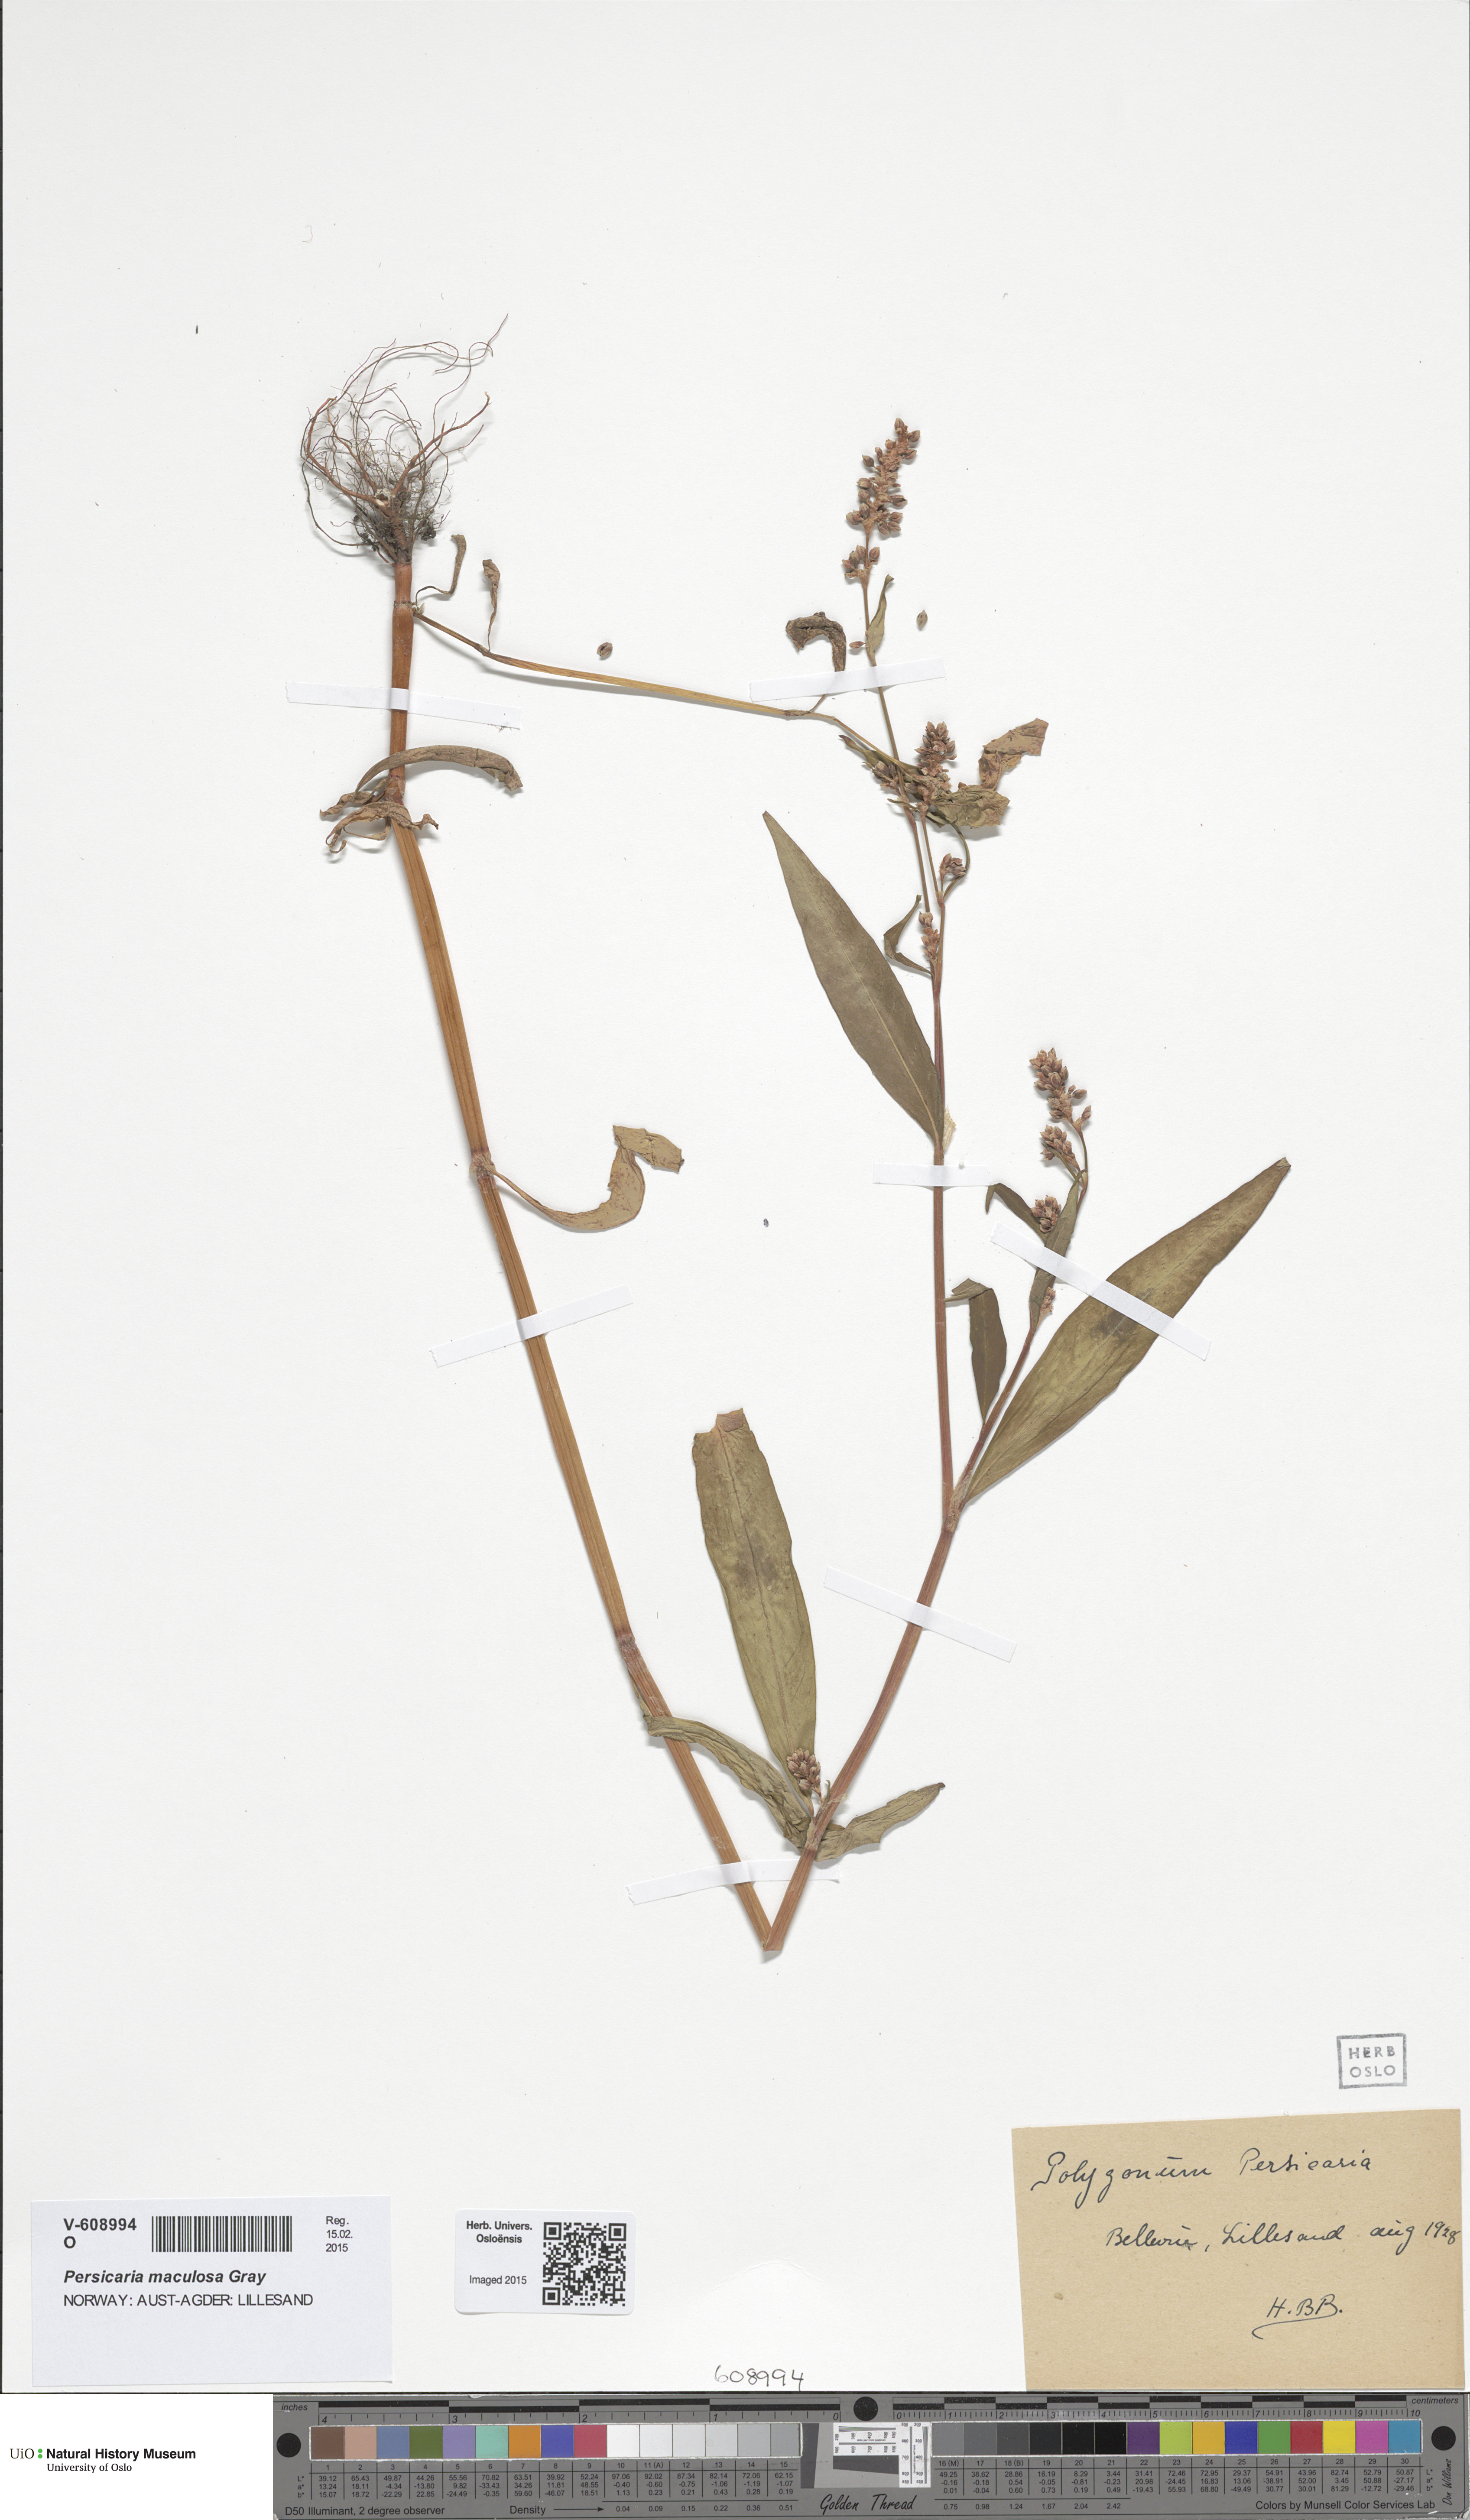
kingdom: Plantae
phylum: Tracheophyta
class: Magnoliopsida
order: Caryophyllales
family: Polygonaceae
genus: Persicaria
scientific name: Persicaria maculosa
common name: Redshank
